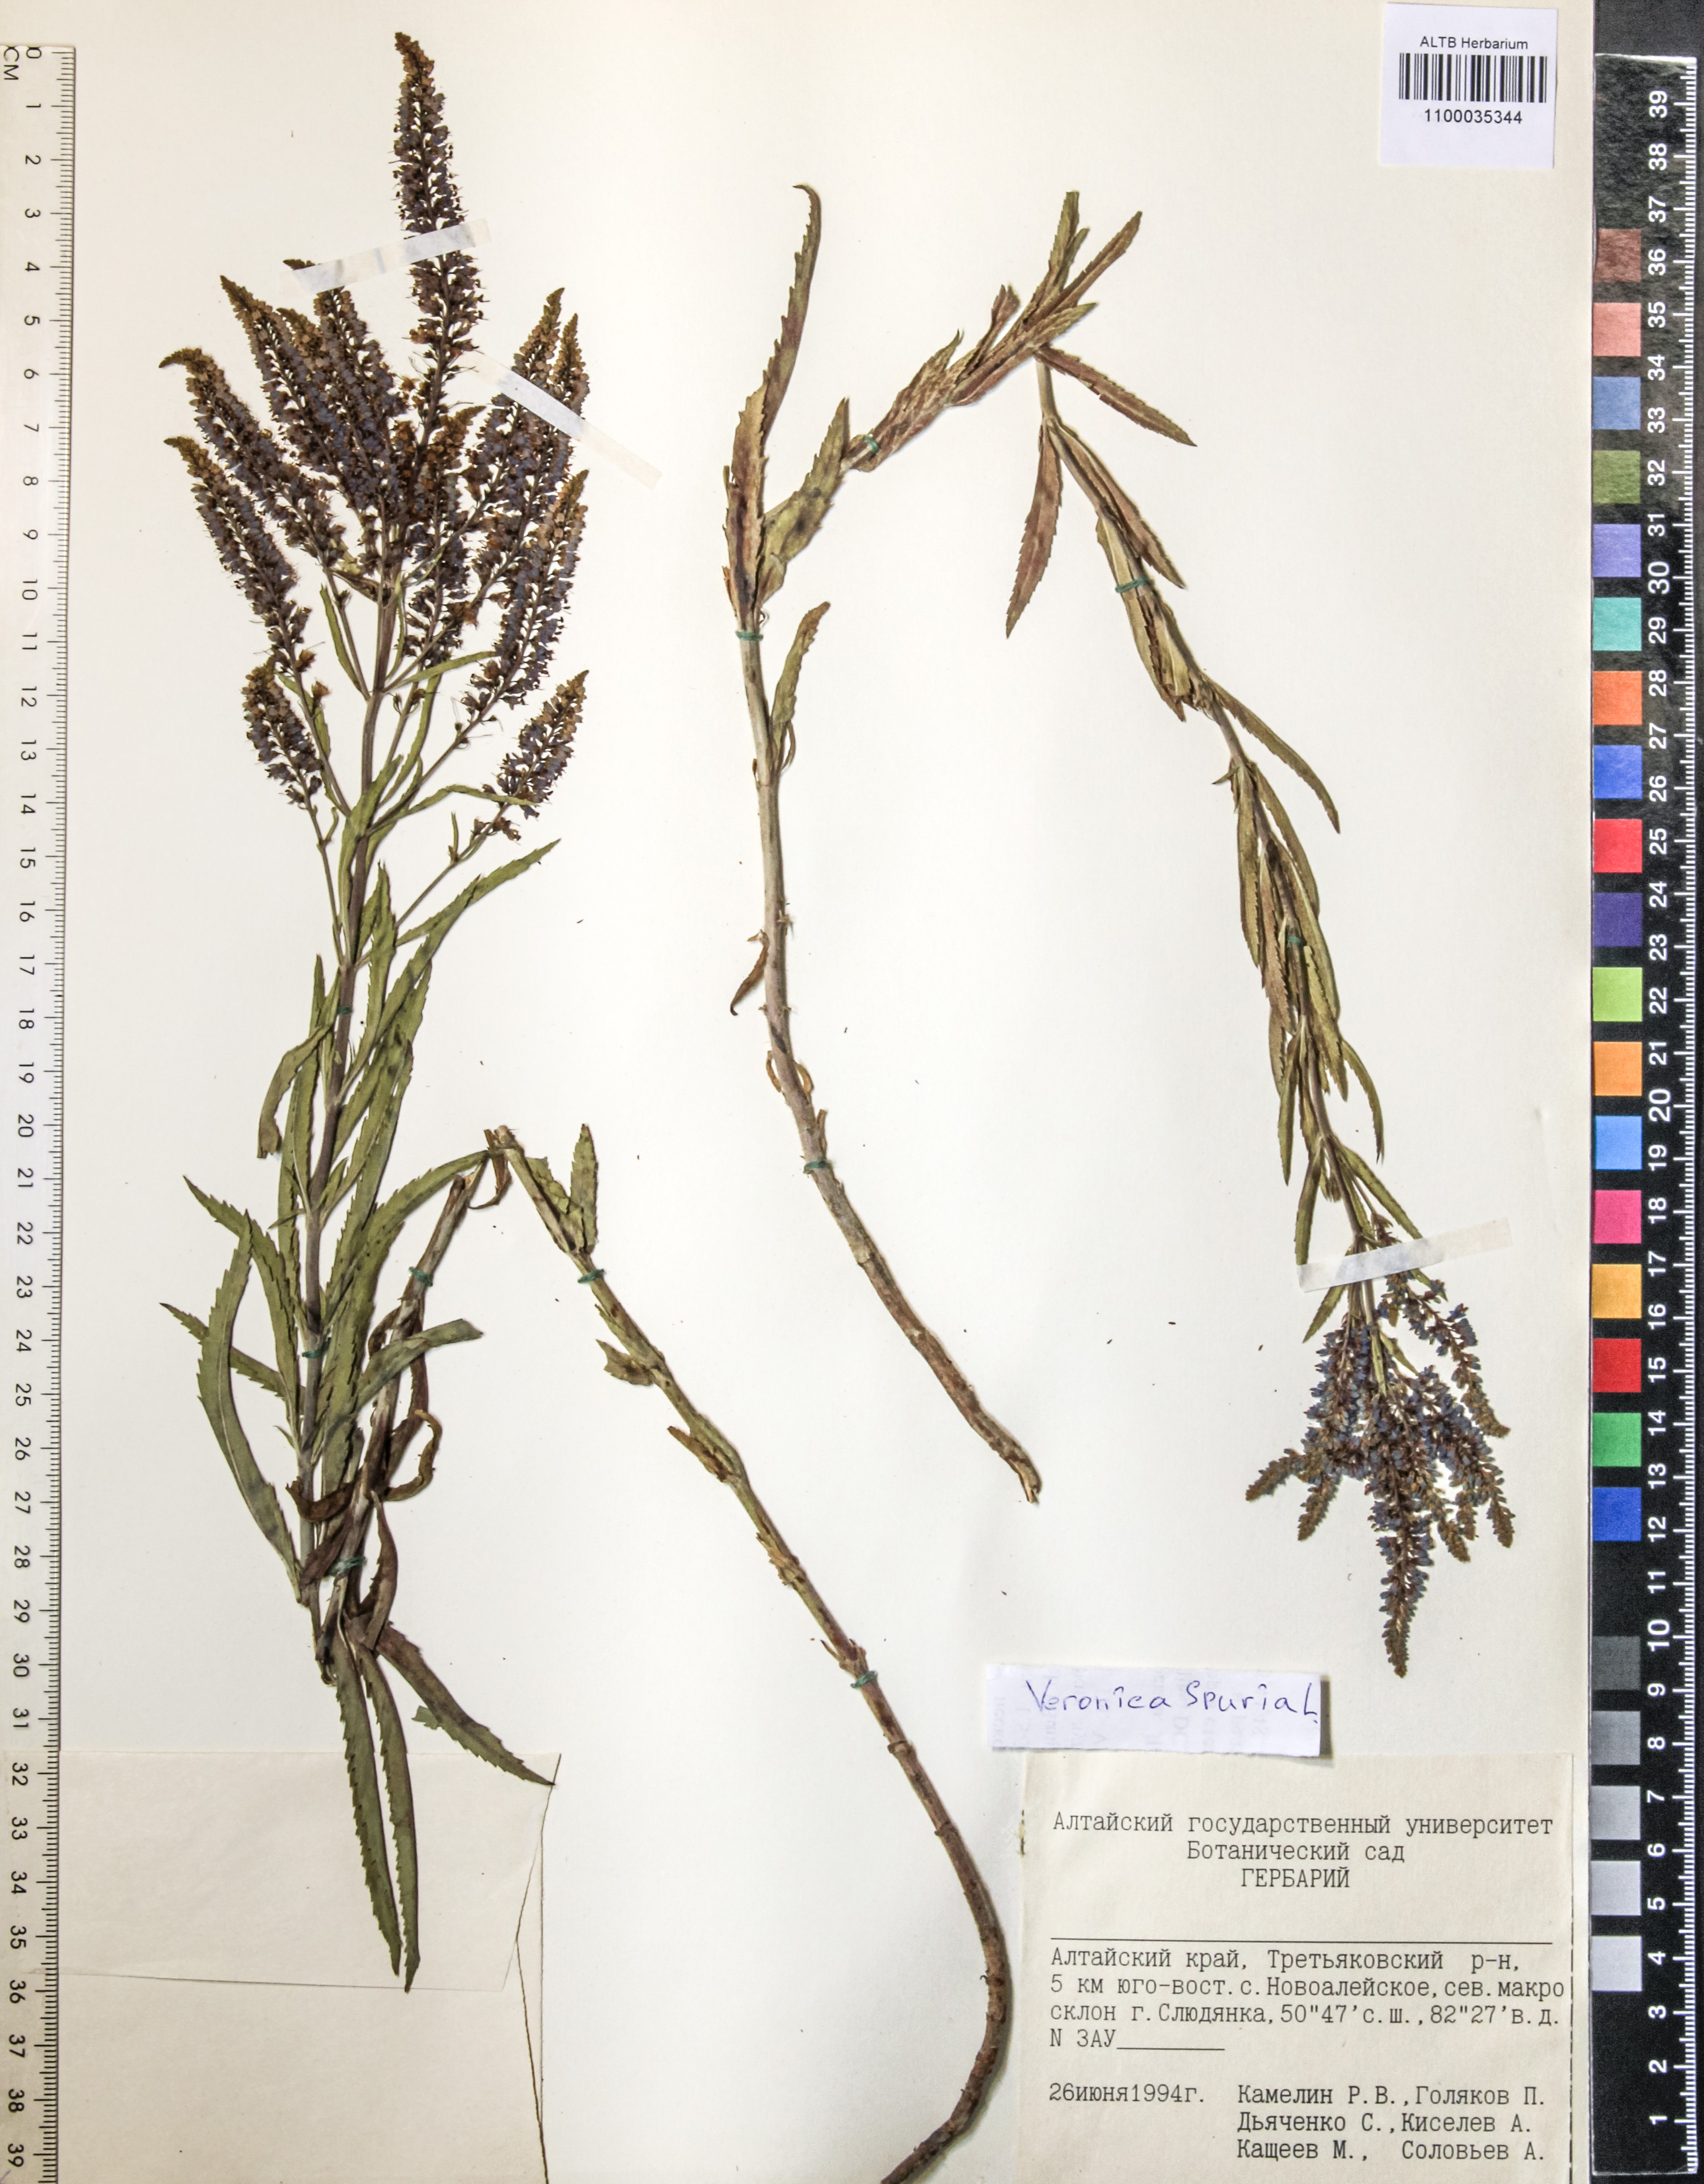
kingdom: Plantae
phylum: Tracheophyta
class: Magnoliopsida
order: Lamiales
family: Plantaginaceae
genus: Veronica
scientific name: Veronica spuria
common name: Bastard speedwell
